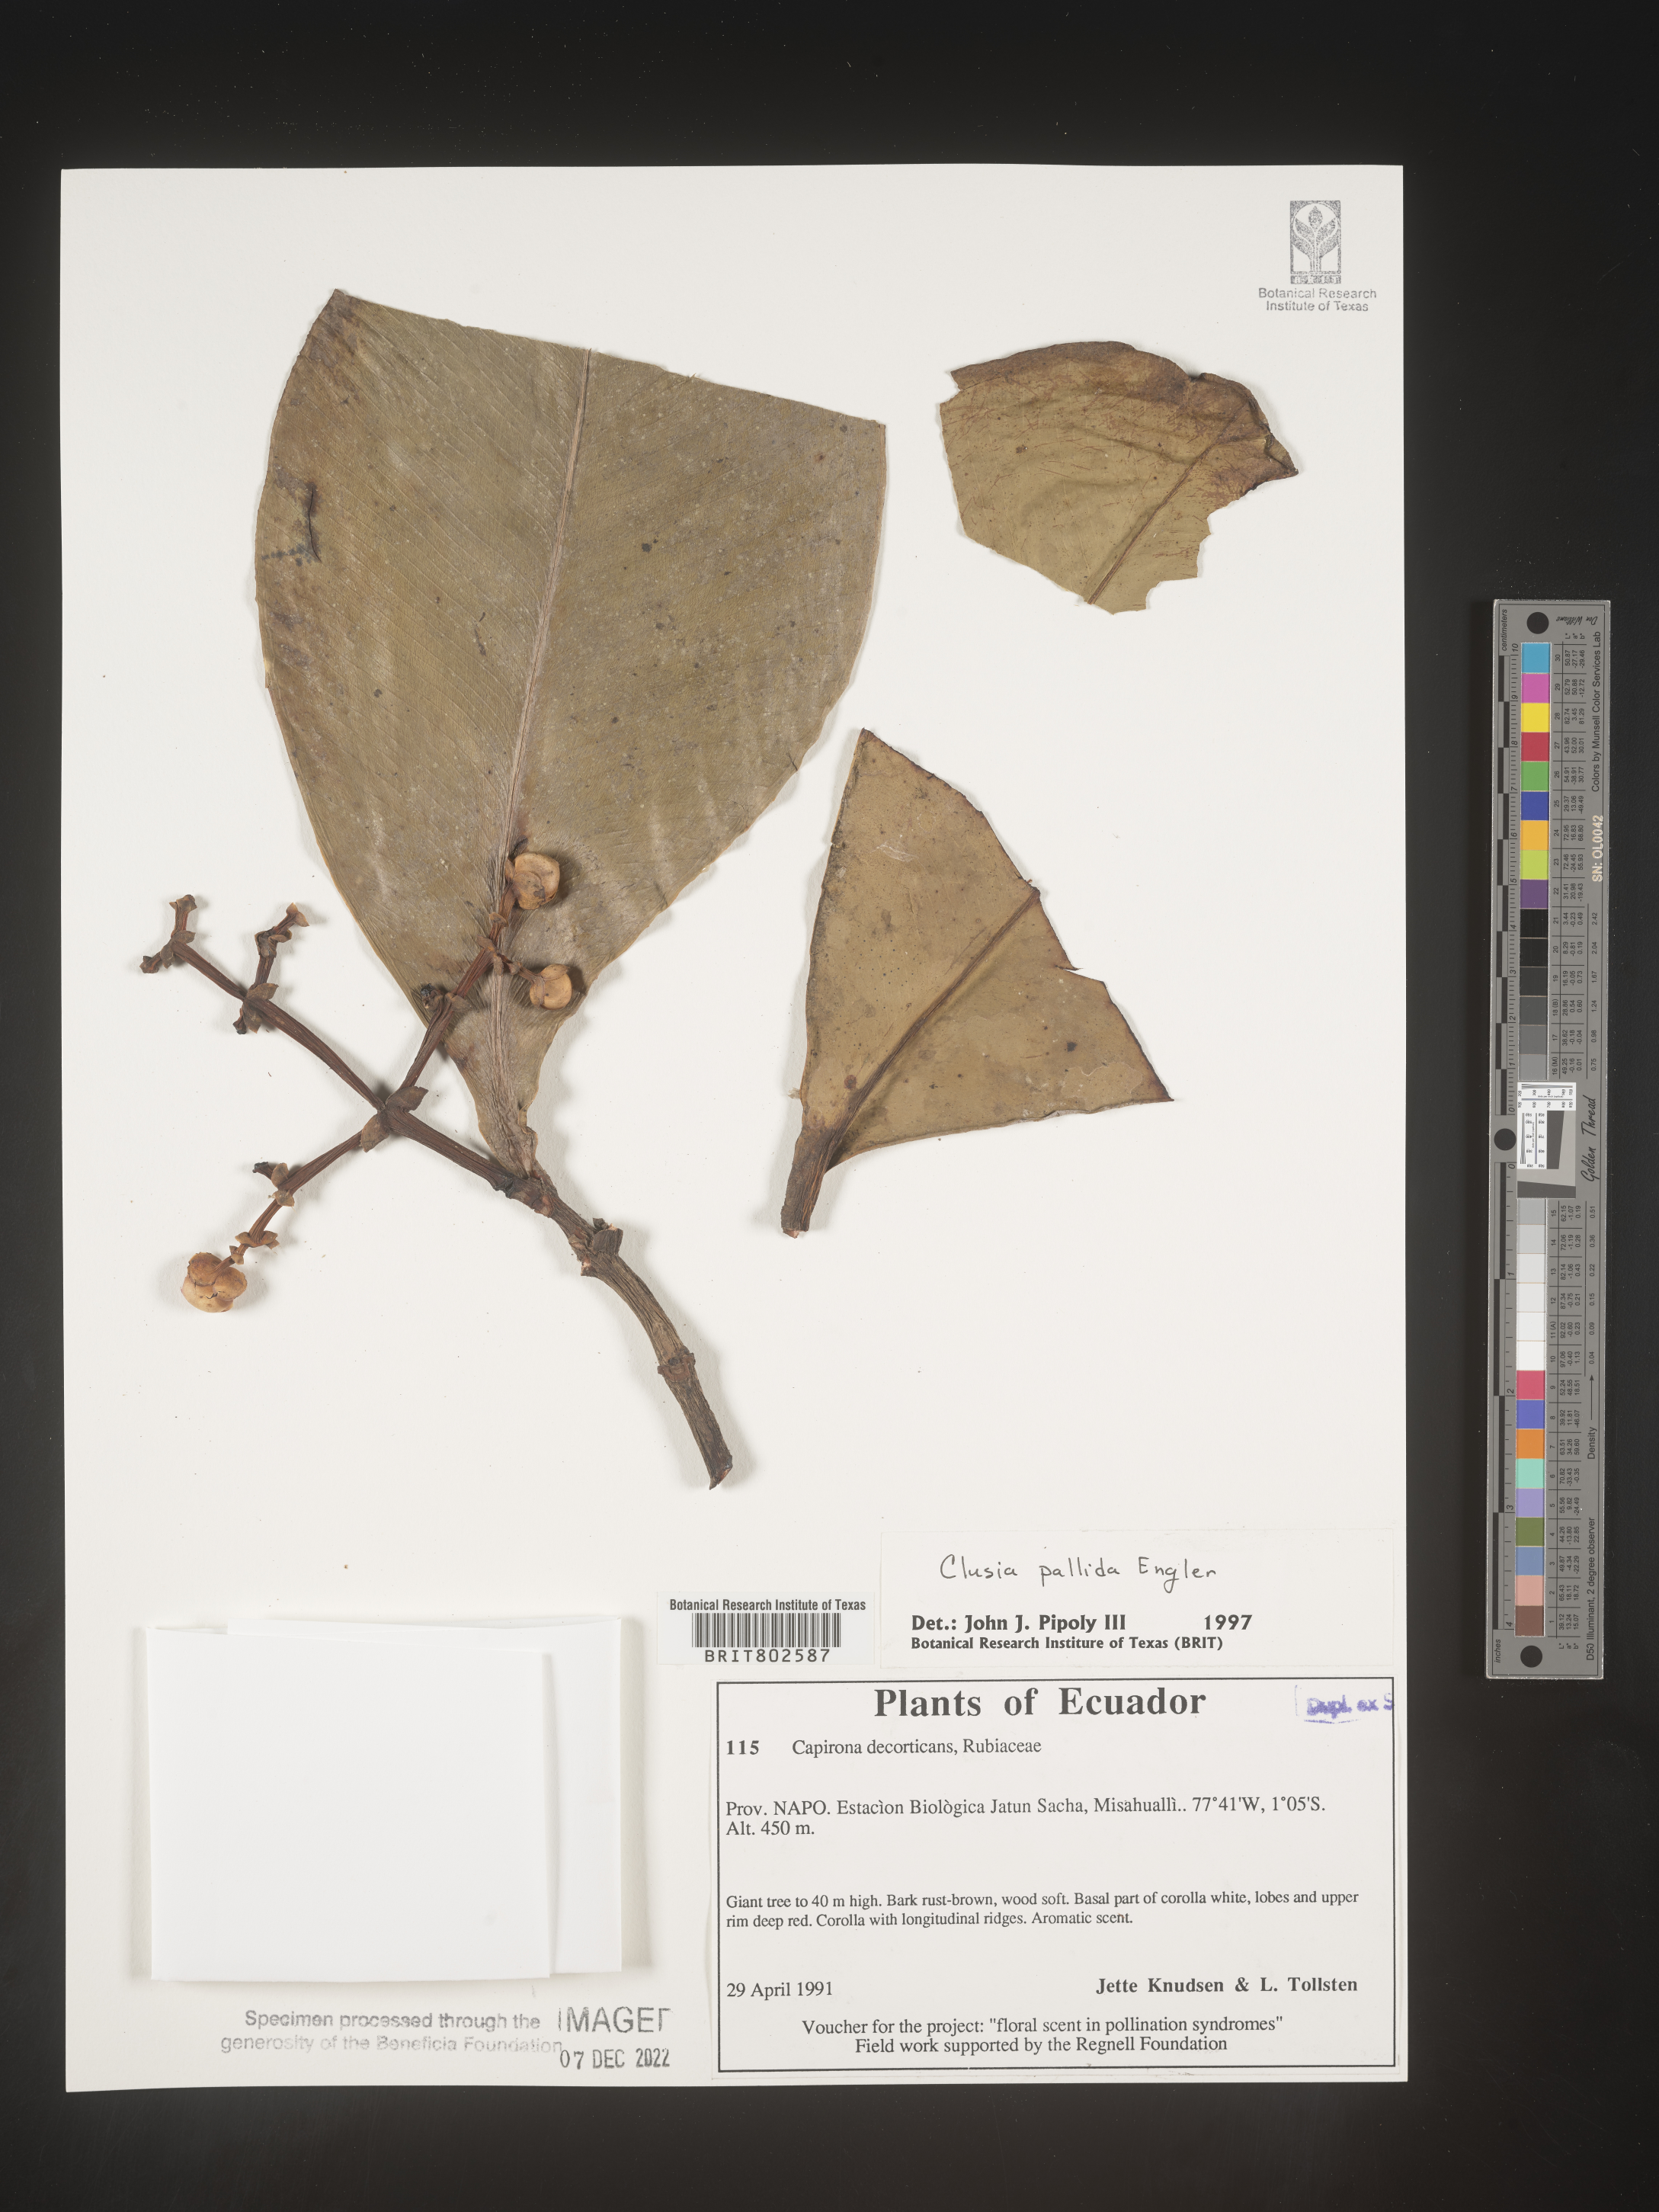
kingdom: Plantae
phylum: Tracheophyta
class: Magnoliopsida
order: Malpighiales
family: Clusiaceae
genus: Clusia
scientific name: Clusia pallida
